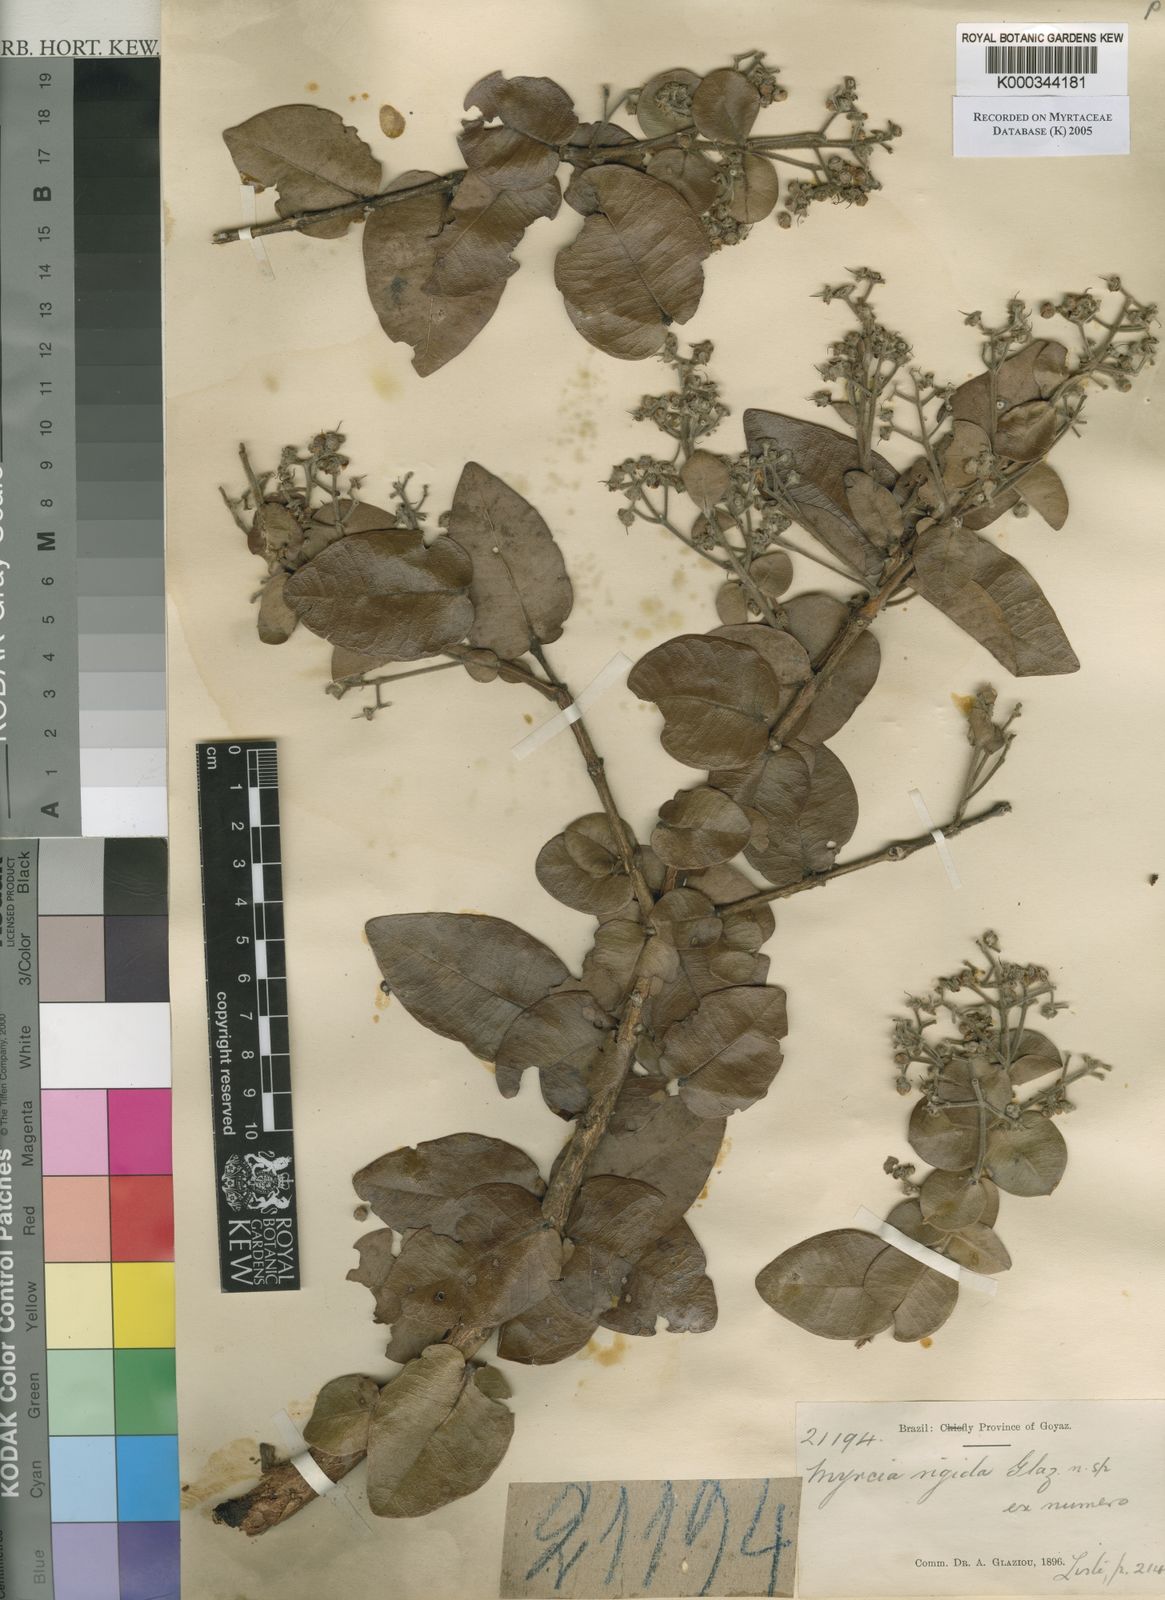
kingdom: Plantae
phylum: Tracheophyta
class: Magnoliopsida
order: Myrtales
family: Myrtaceae
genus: Myrcia
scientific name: Myrcia
